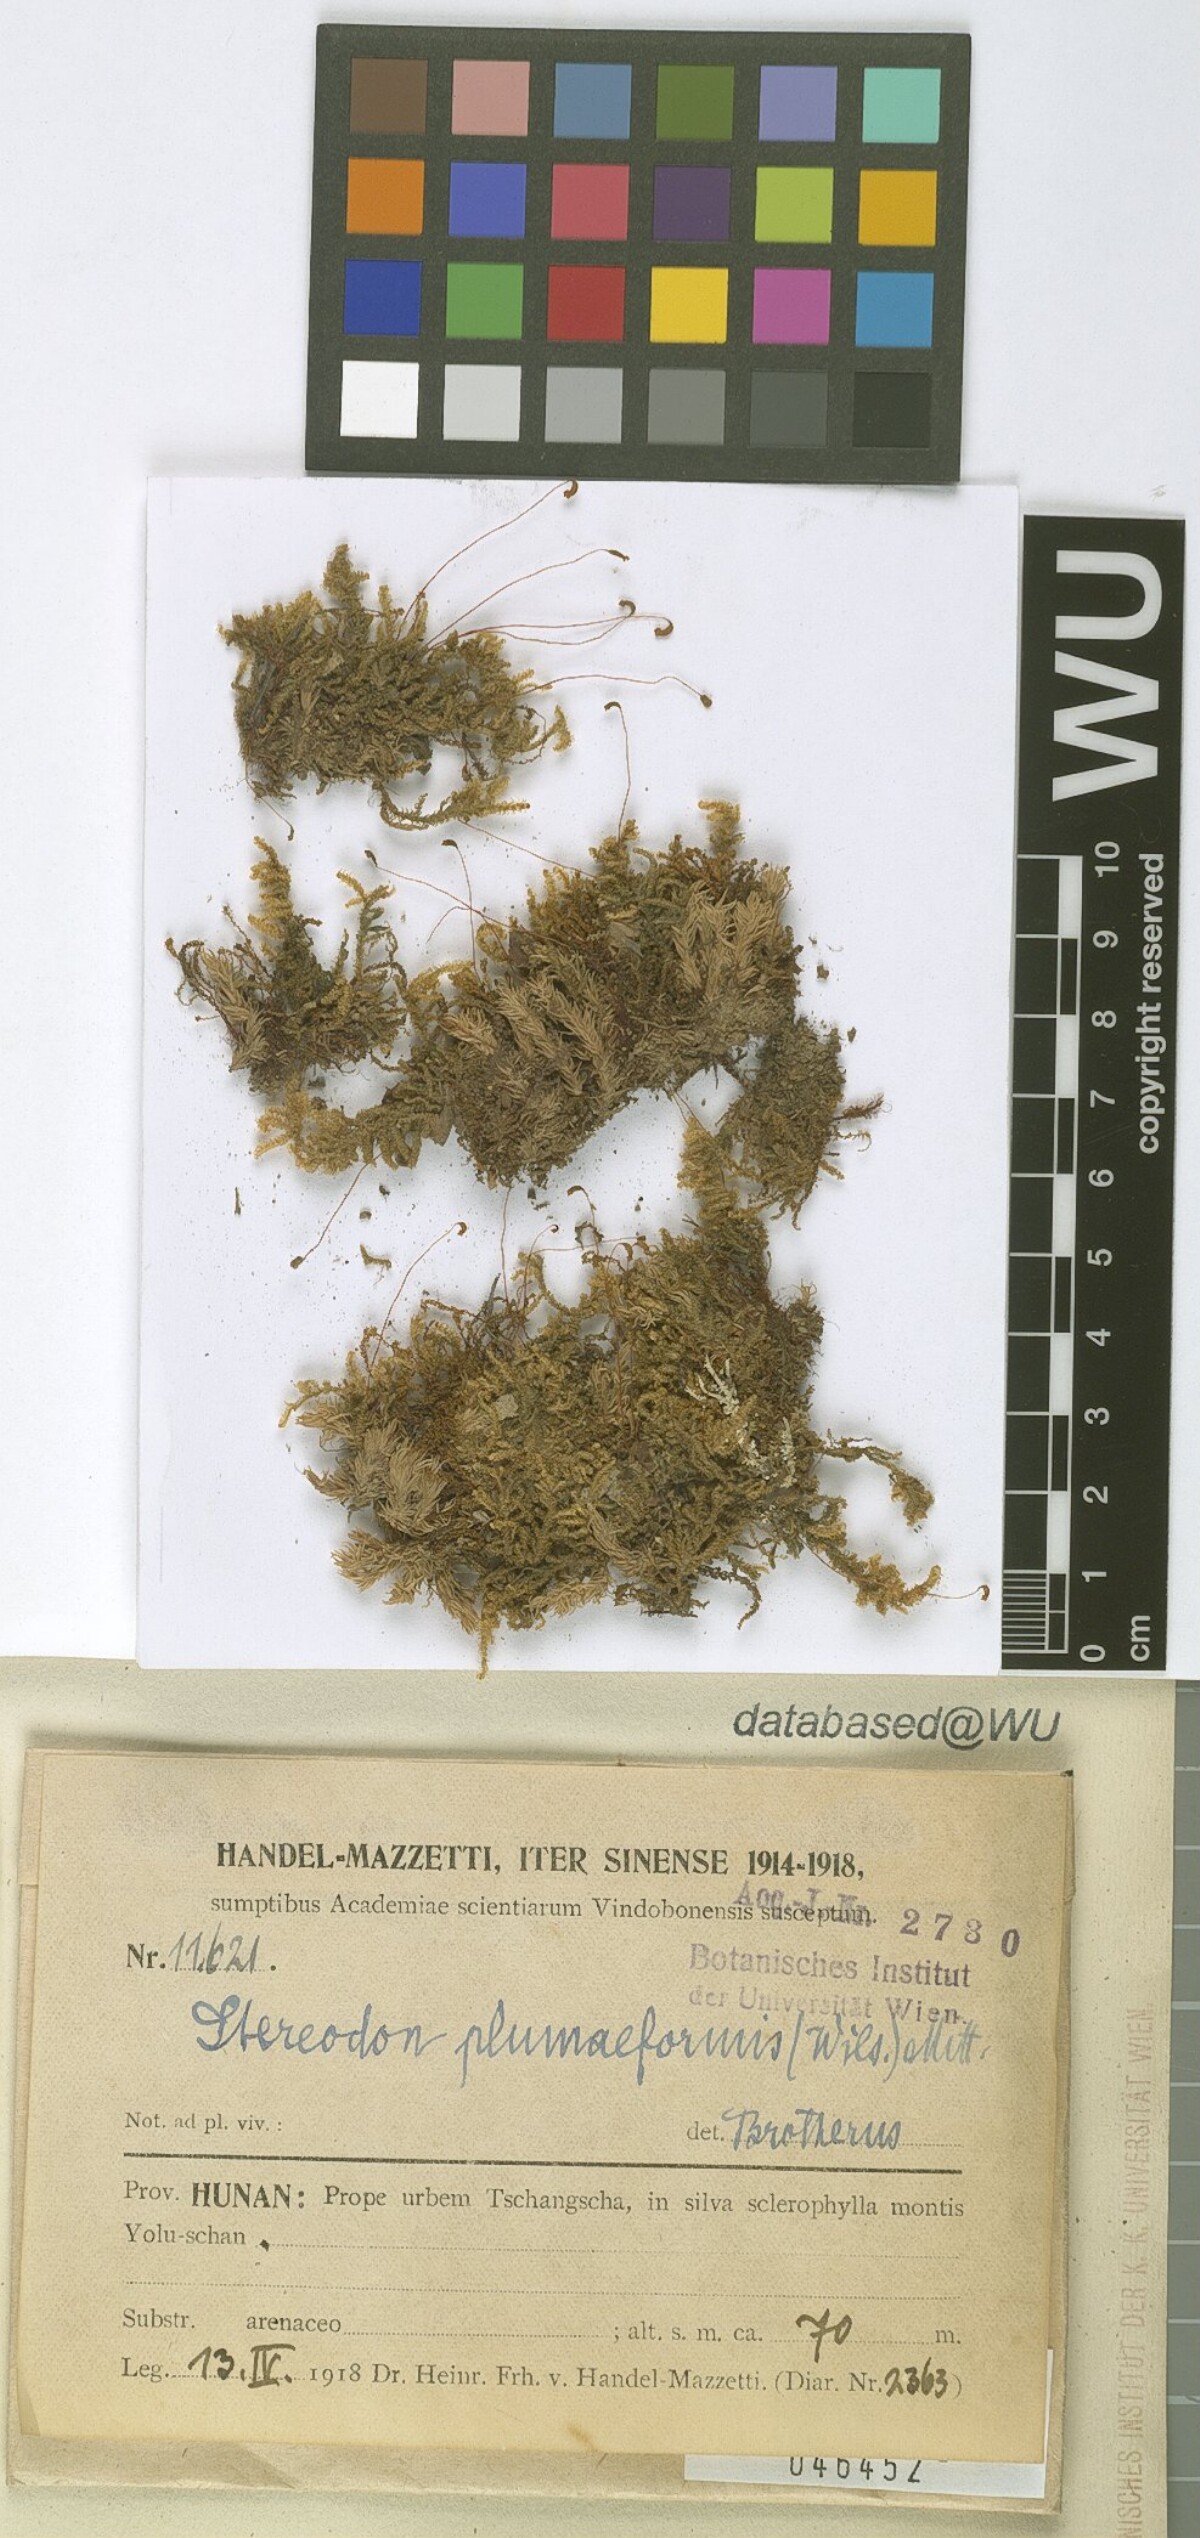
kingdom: Plantae
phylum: Bryophyta
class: Bryopsida
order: Hypnales
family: Hypnaceae
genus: Hypnum
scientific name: Hypnum plumaeforme
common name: Cypress-leaved plaitmoss
